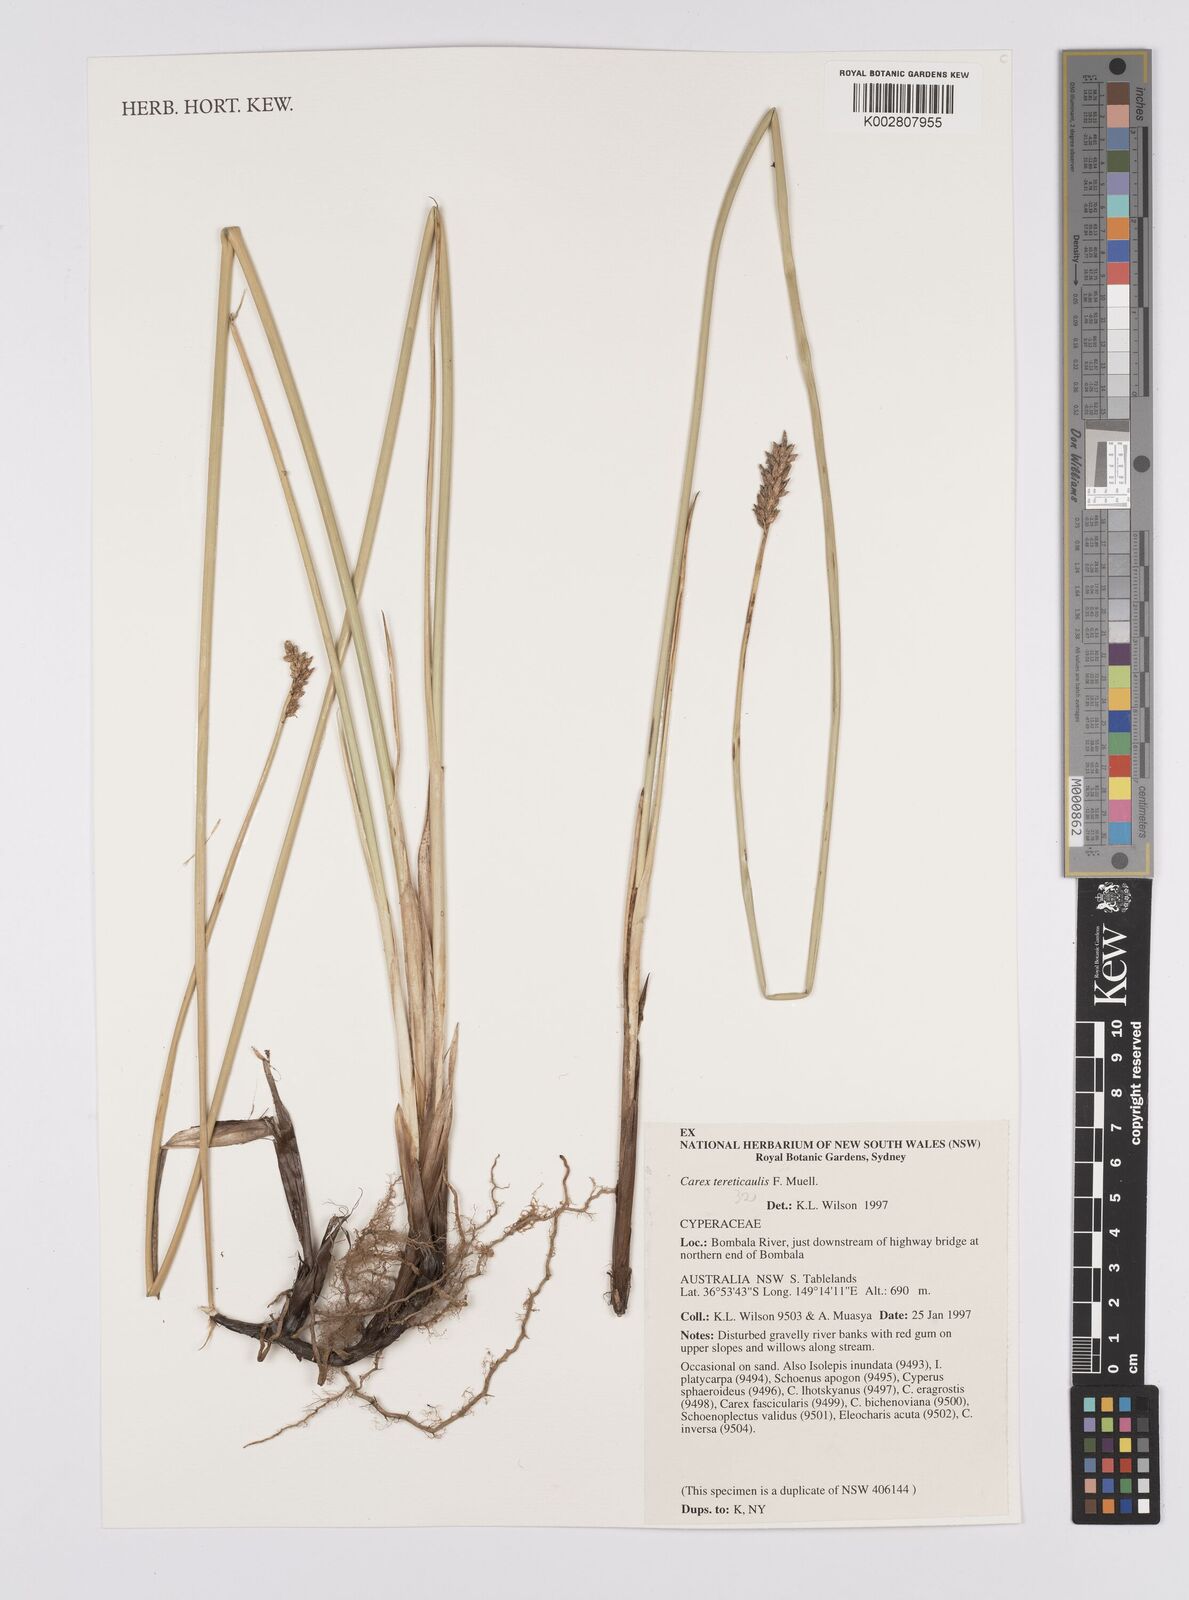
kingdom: Plantae
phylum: Tracheophyta
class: Liliopsida
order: Poales
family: Cyperaceae
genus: Carex
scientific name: Carex tereticaulis
